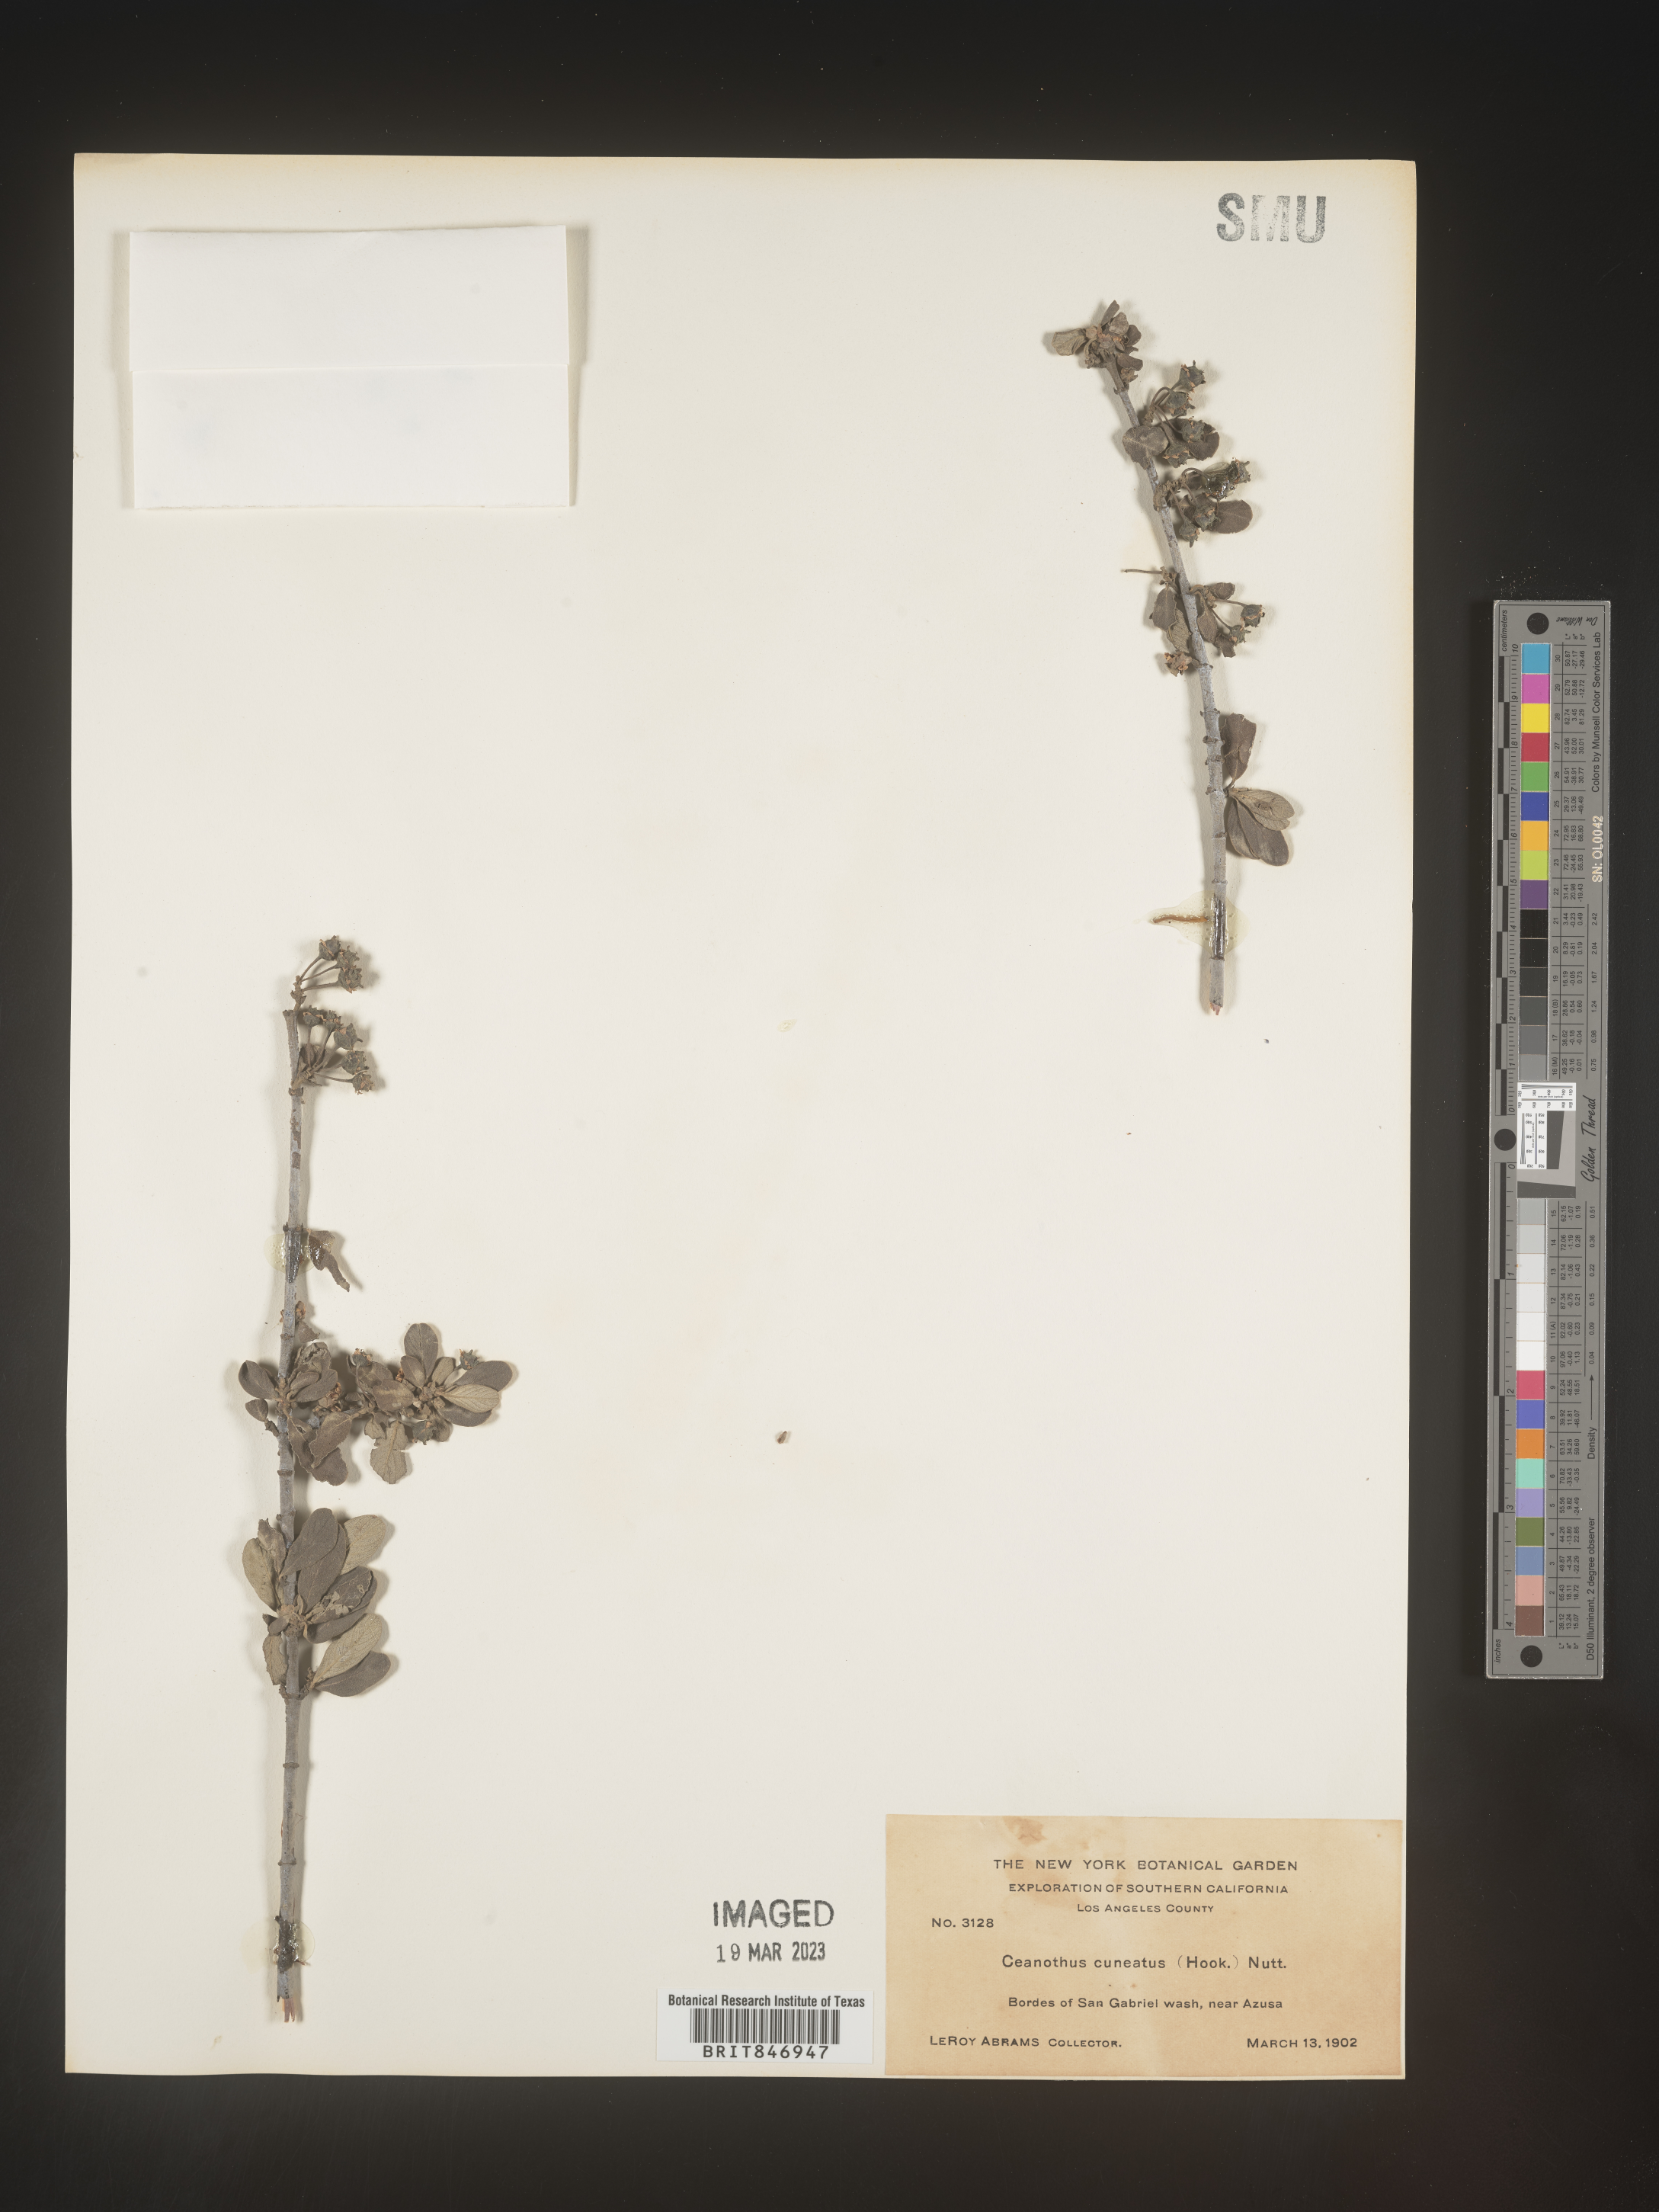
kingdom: Plantae
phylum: Tracheophyta
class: Magnoliopsida
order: Rosales
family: Rhamnaceae
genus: Ceanothus
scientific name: Ceanothus cuneatus
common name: Cuneate ceanothus
